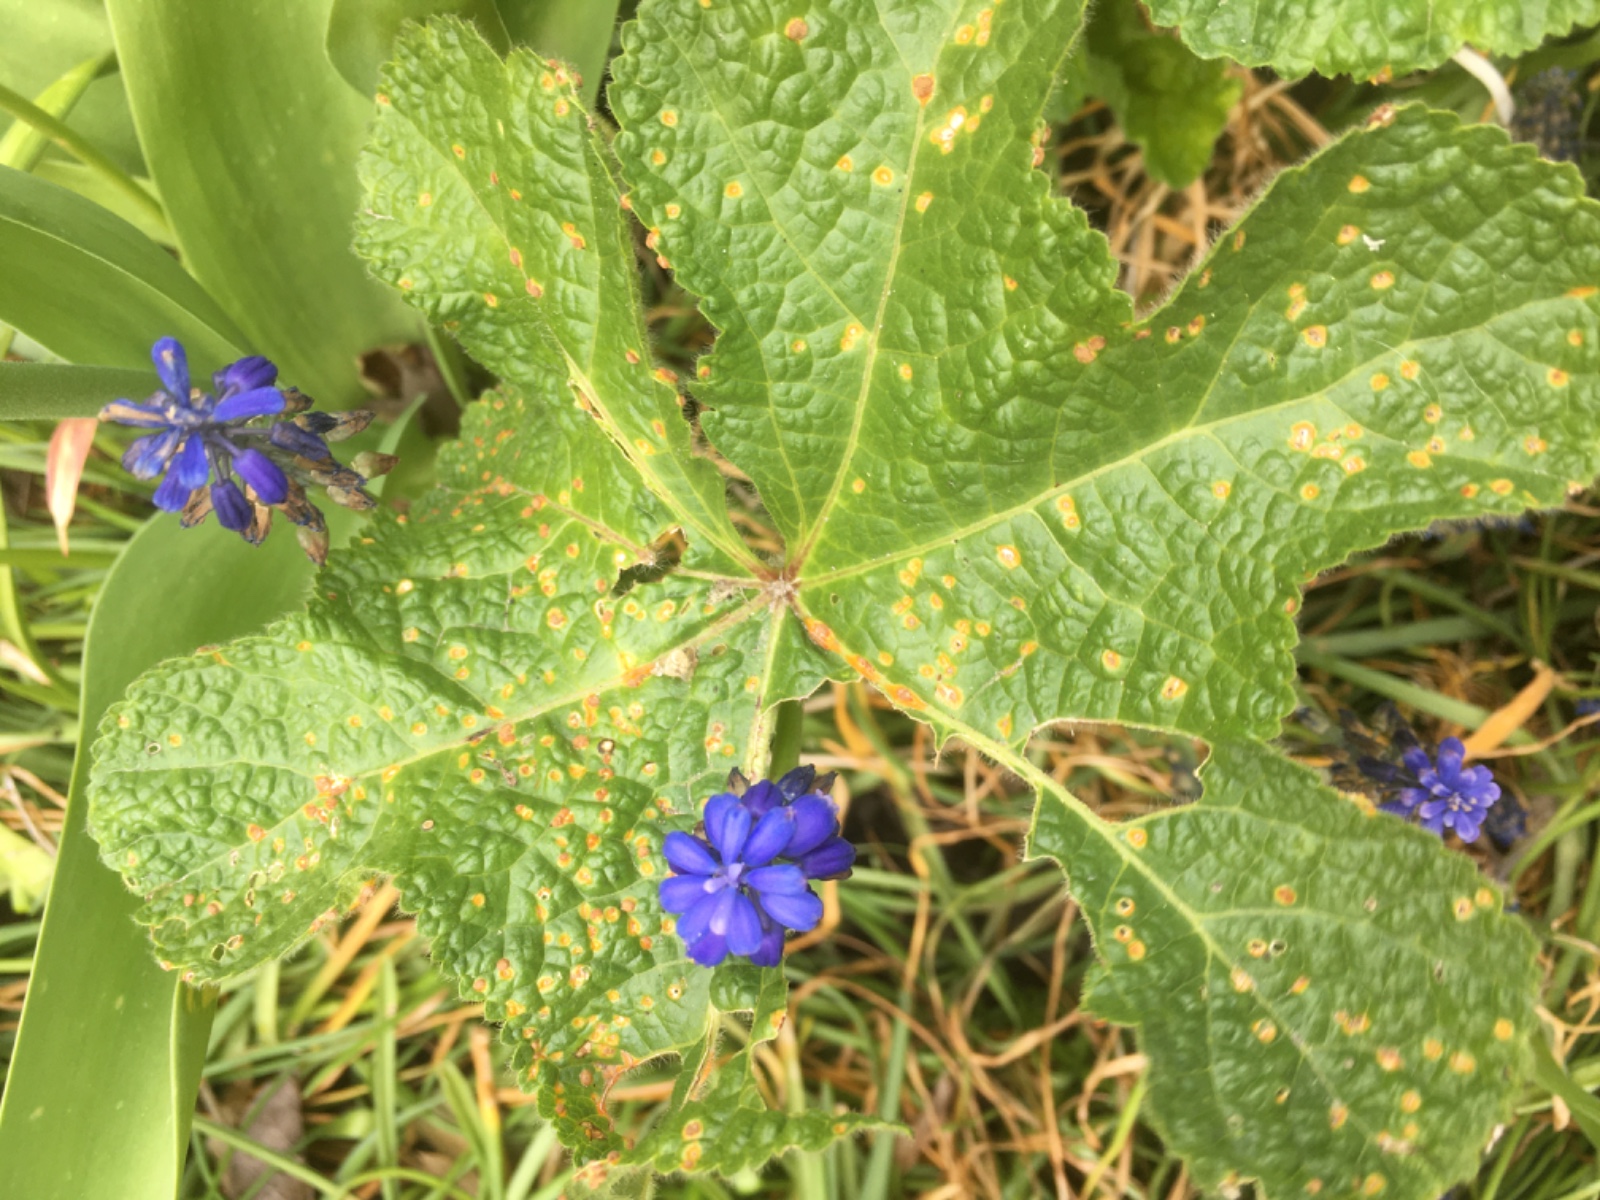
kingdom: Fungi
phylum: Basidiomycota
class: Pucciniomycetes
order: Pucciniales
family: Pucciniaceae
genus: Puccinia
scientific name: Puccinia malvacearum
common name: stokrose-tvecellerust
